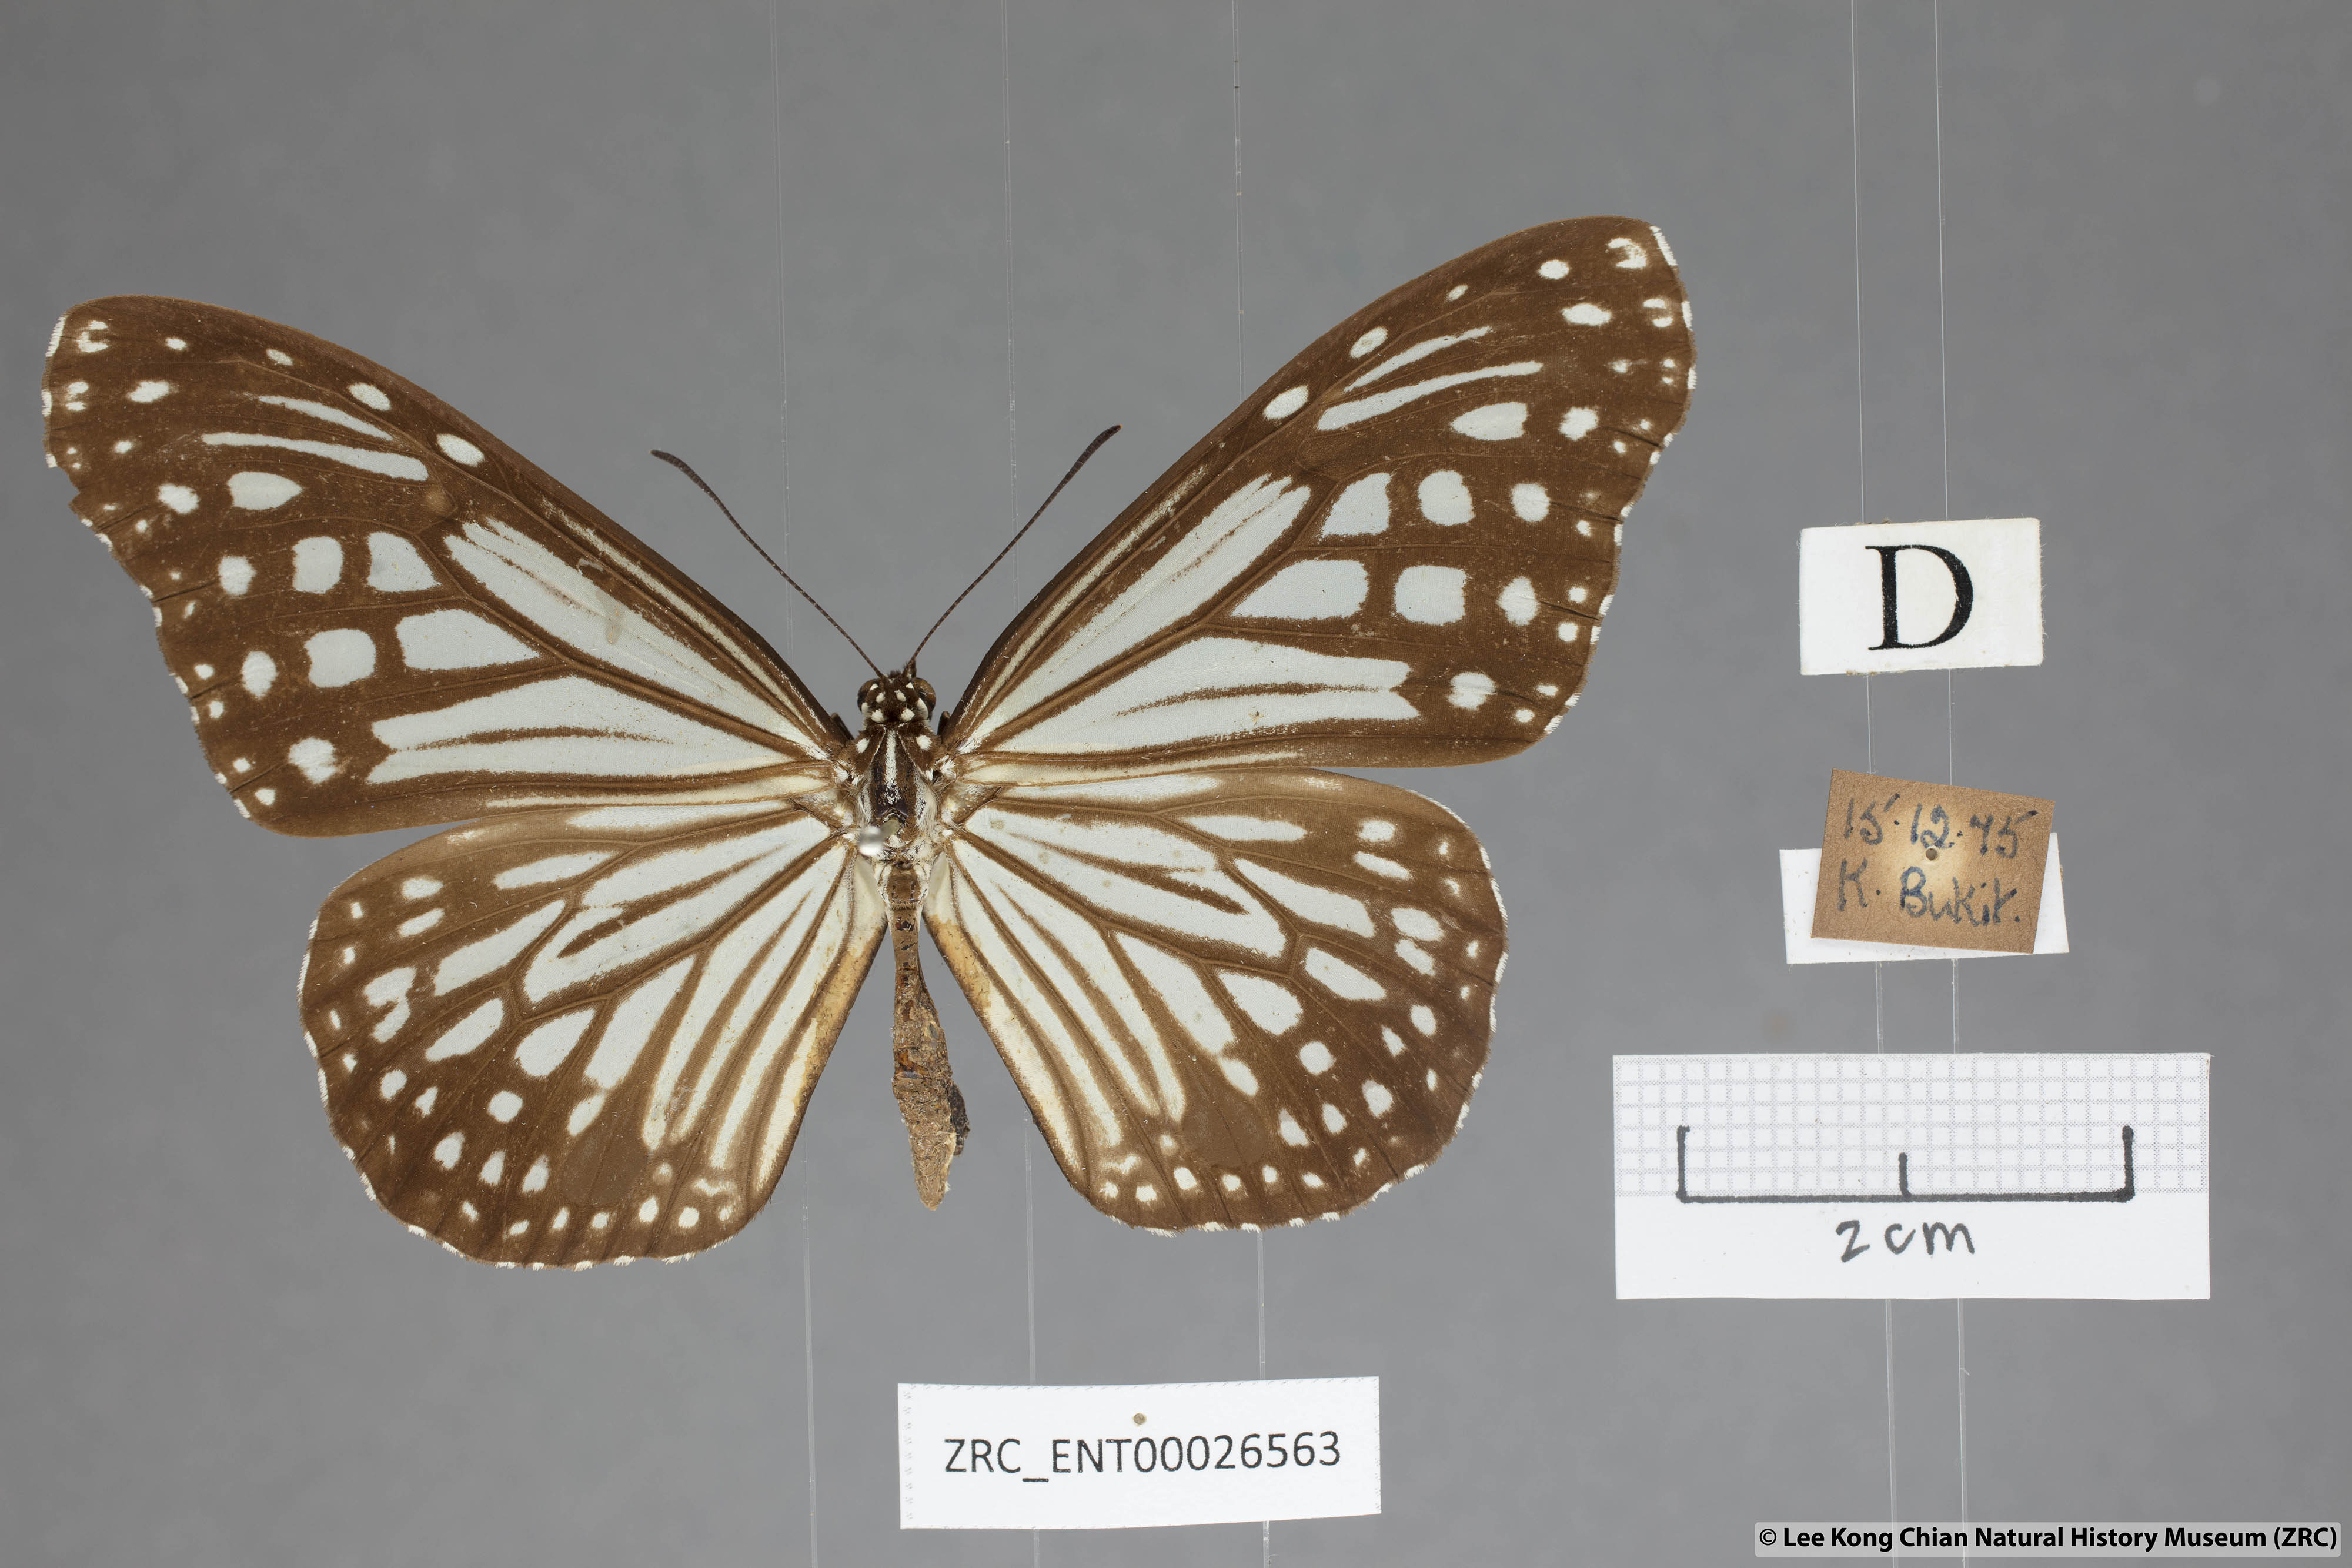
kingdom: Animalia
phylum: Arthropoda
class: Insecta
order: Lepidoptera
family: Nymphalidae
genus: Parantica
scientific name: Parantica aglea
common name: Glassy tiger
